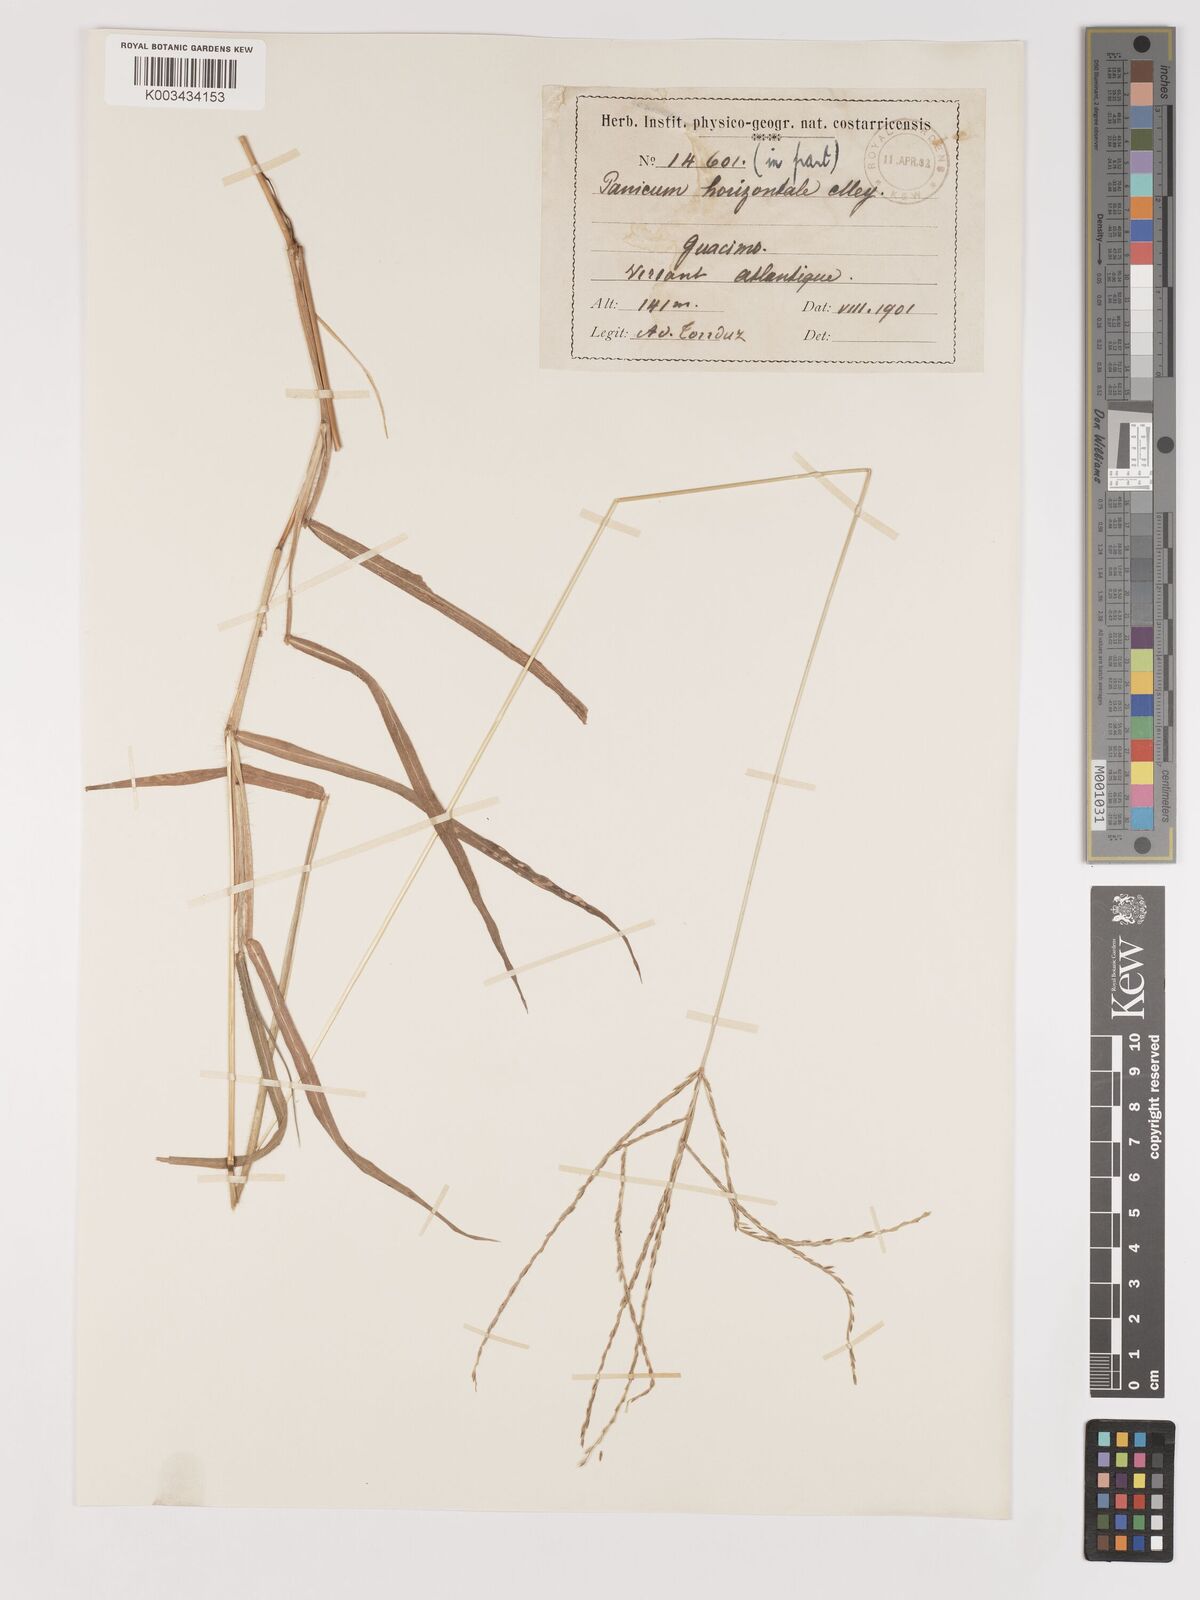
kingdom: Plantae
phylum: Tracheophyta
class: Liliopsida
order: Poales
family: Poaceae
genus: Digitaria
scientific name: Digitaria ciliaris
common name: Tropical finger-grass
